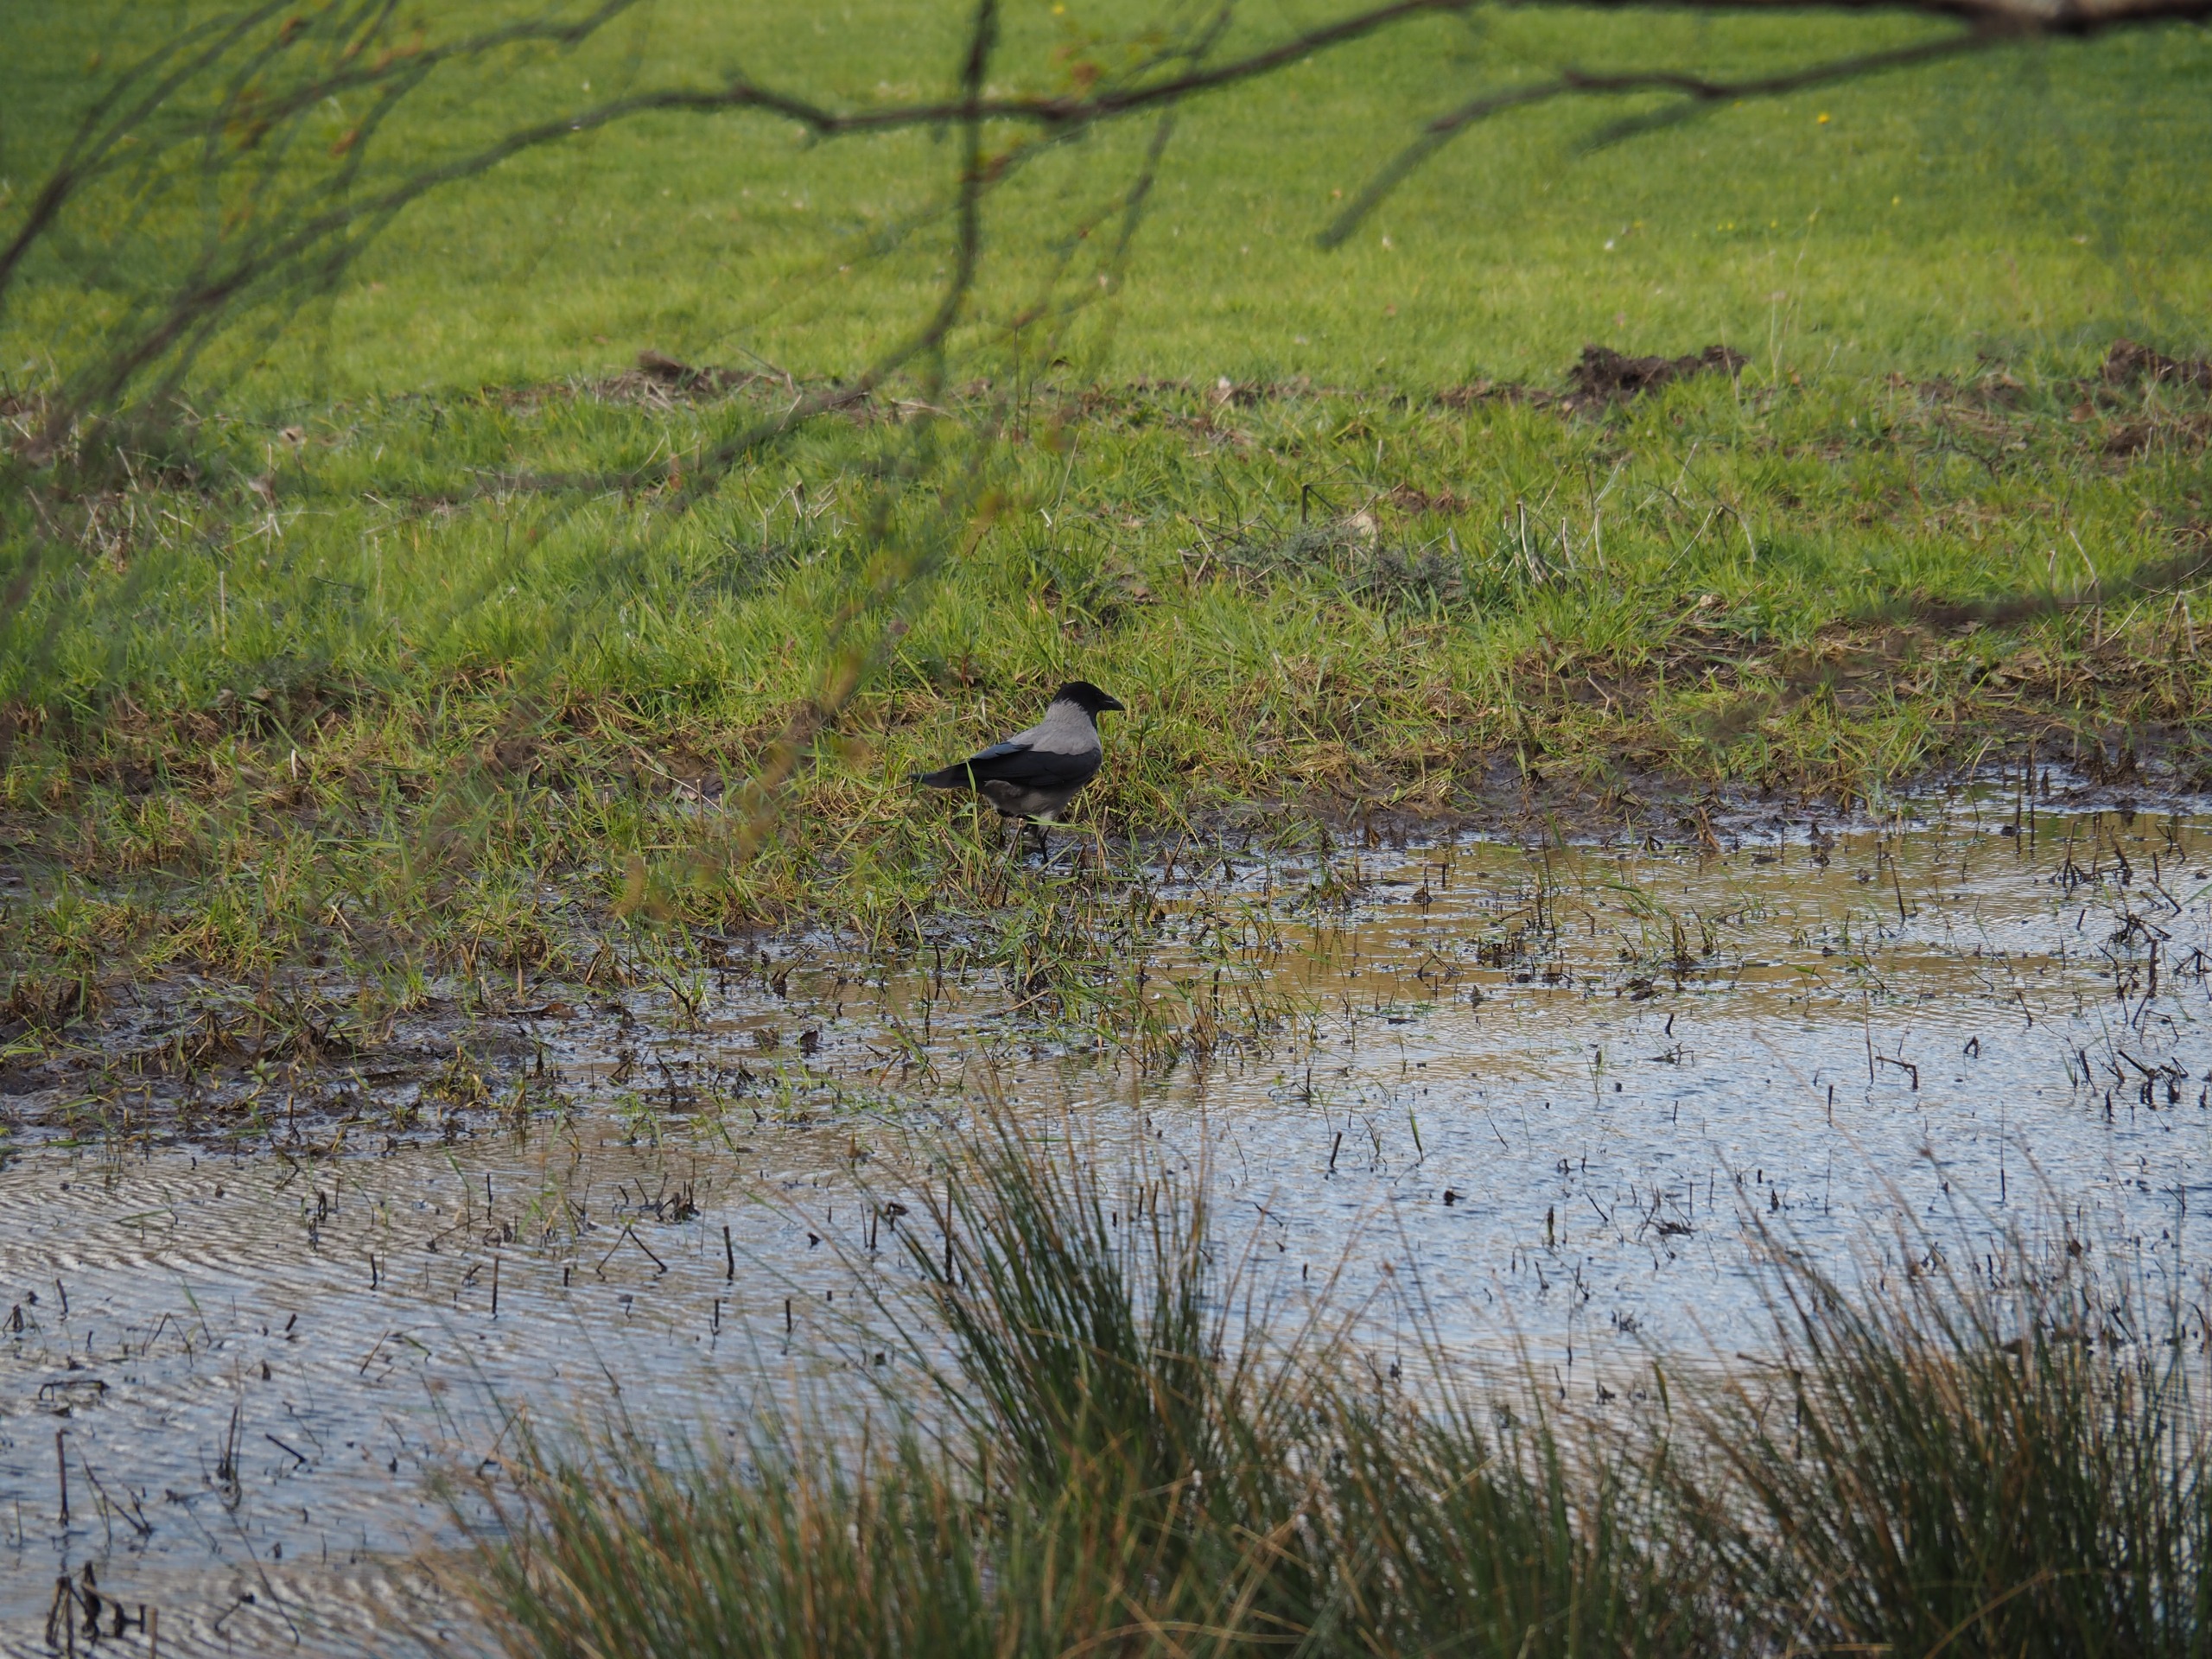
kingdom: Animalia
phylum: Chordata
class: Aves
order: Passeriformes
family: Corvidae
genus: Corvus
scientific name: Corvus cornix
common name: Gråkrage
